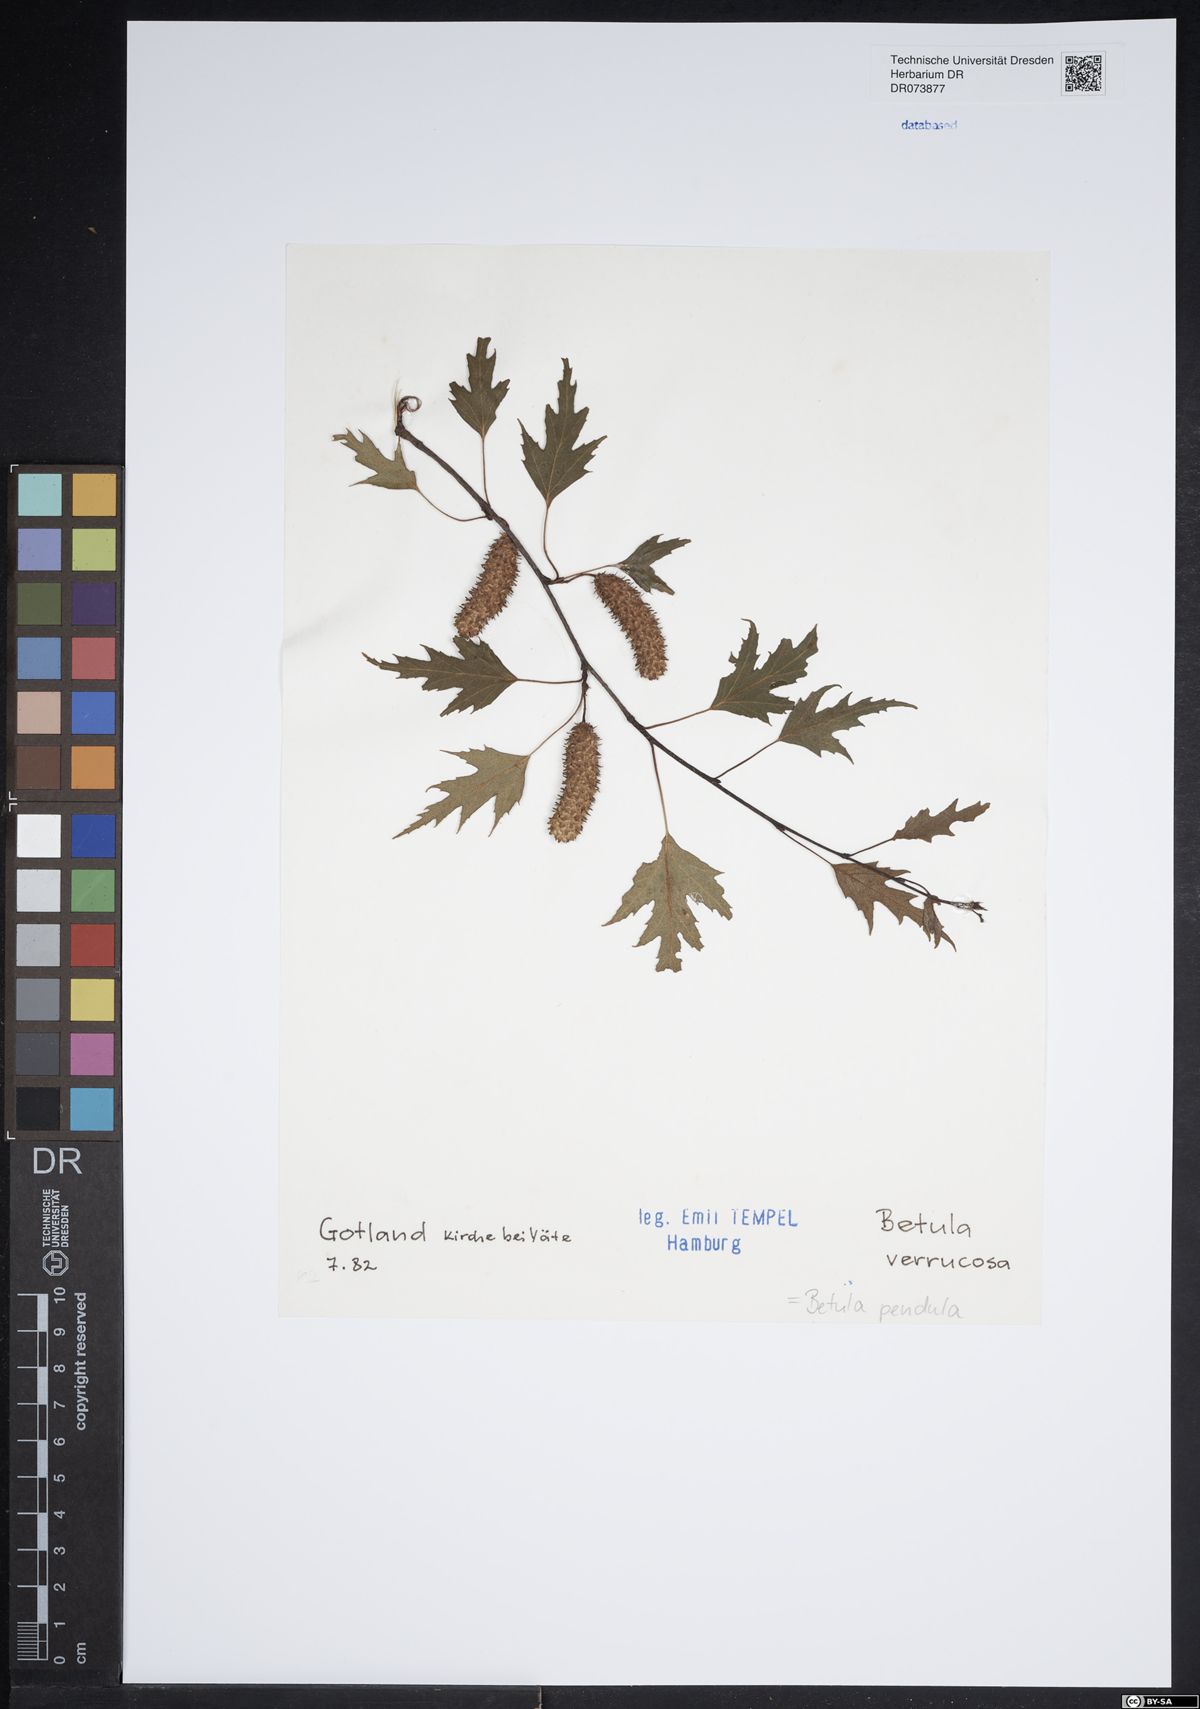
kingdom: Plantae
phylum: Tracheophyta
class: Magnoliopsida
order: Fagales
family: Betulaceae
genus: Betula
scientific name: Betula pendula
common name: Silver birch
